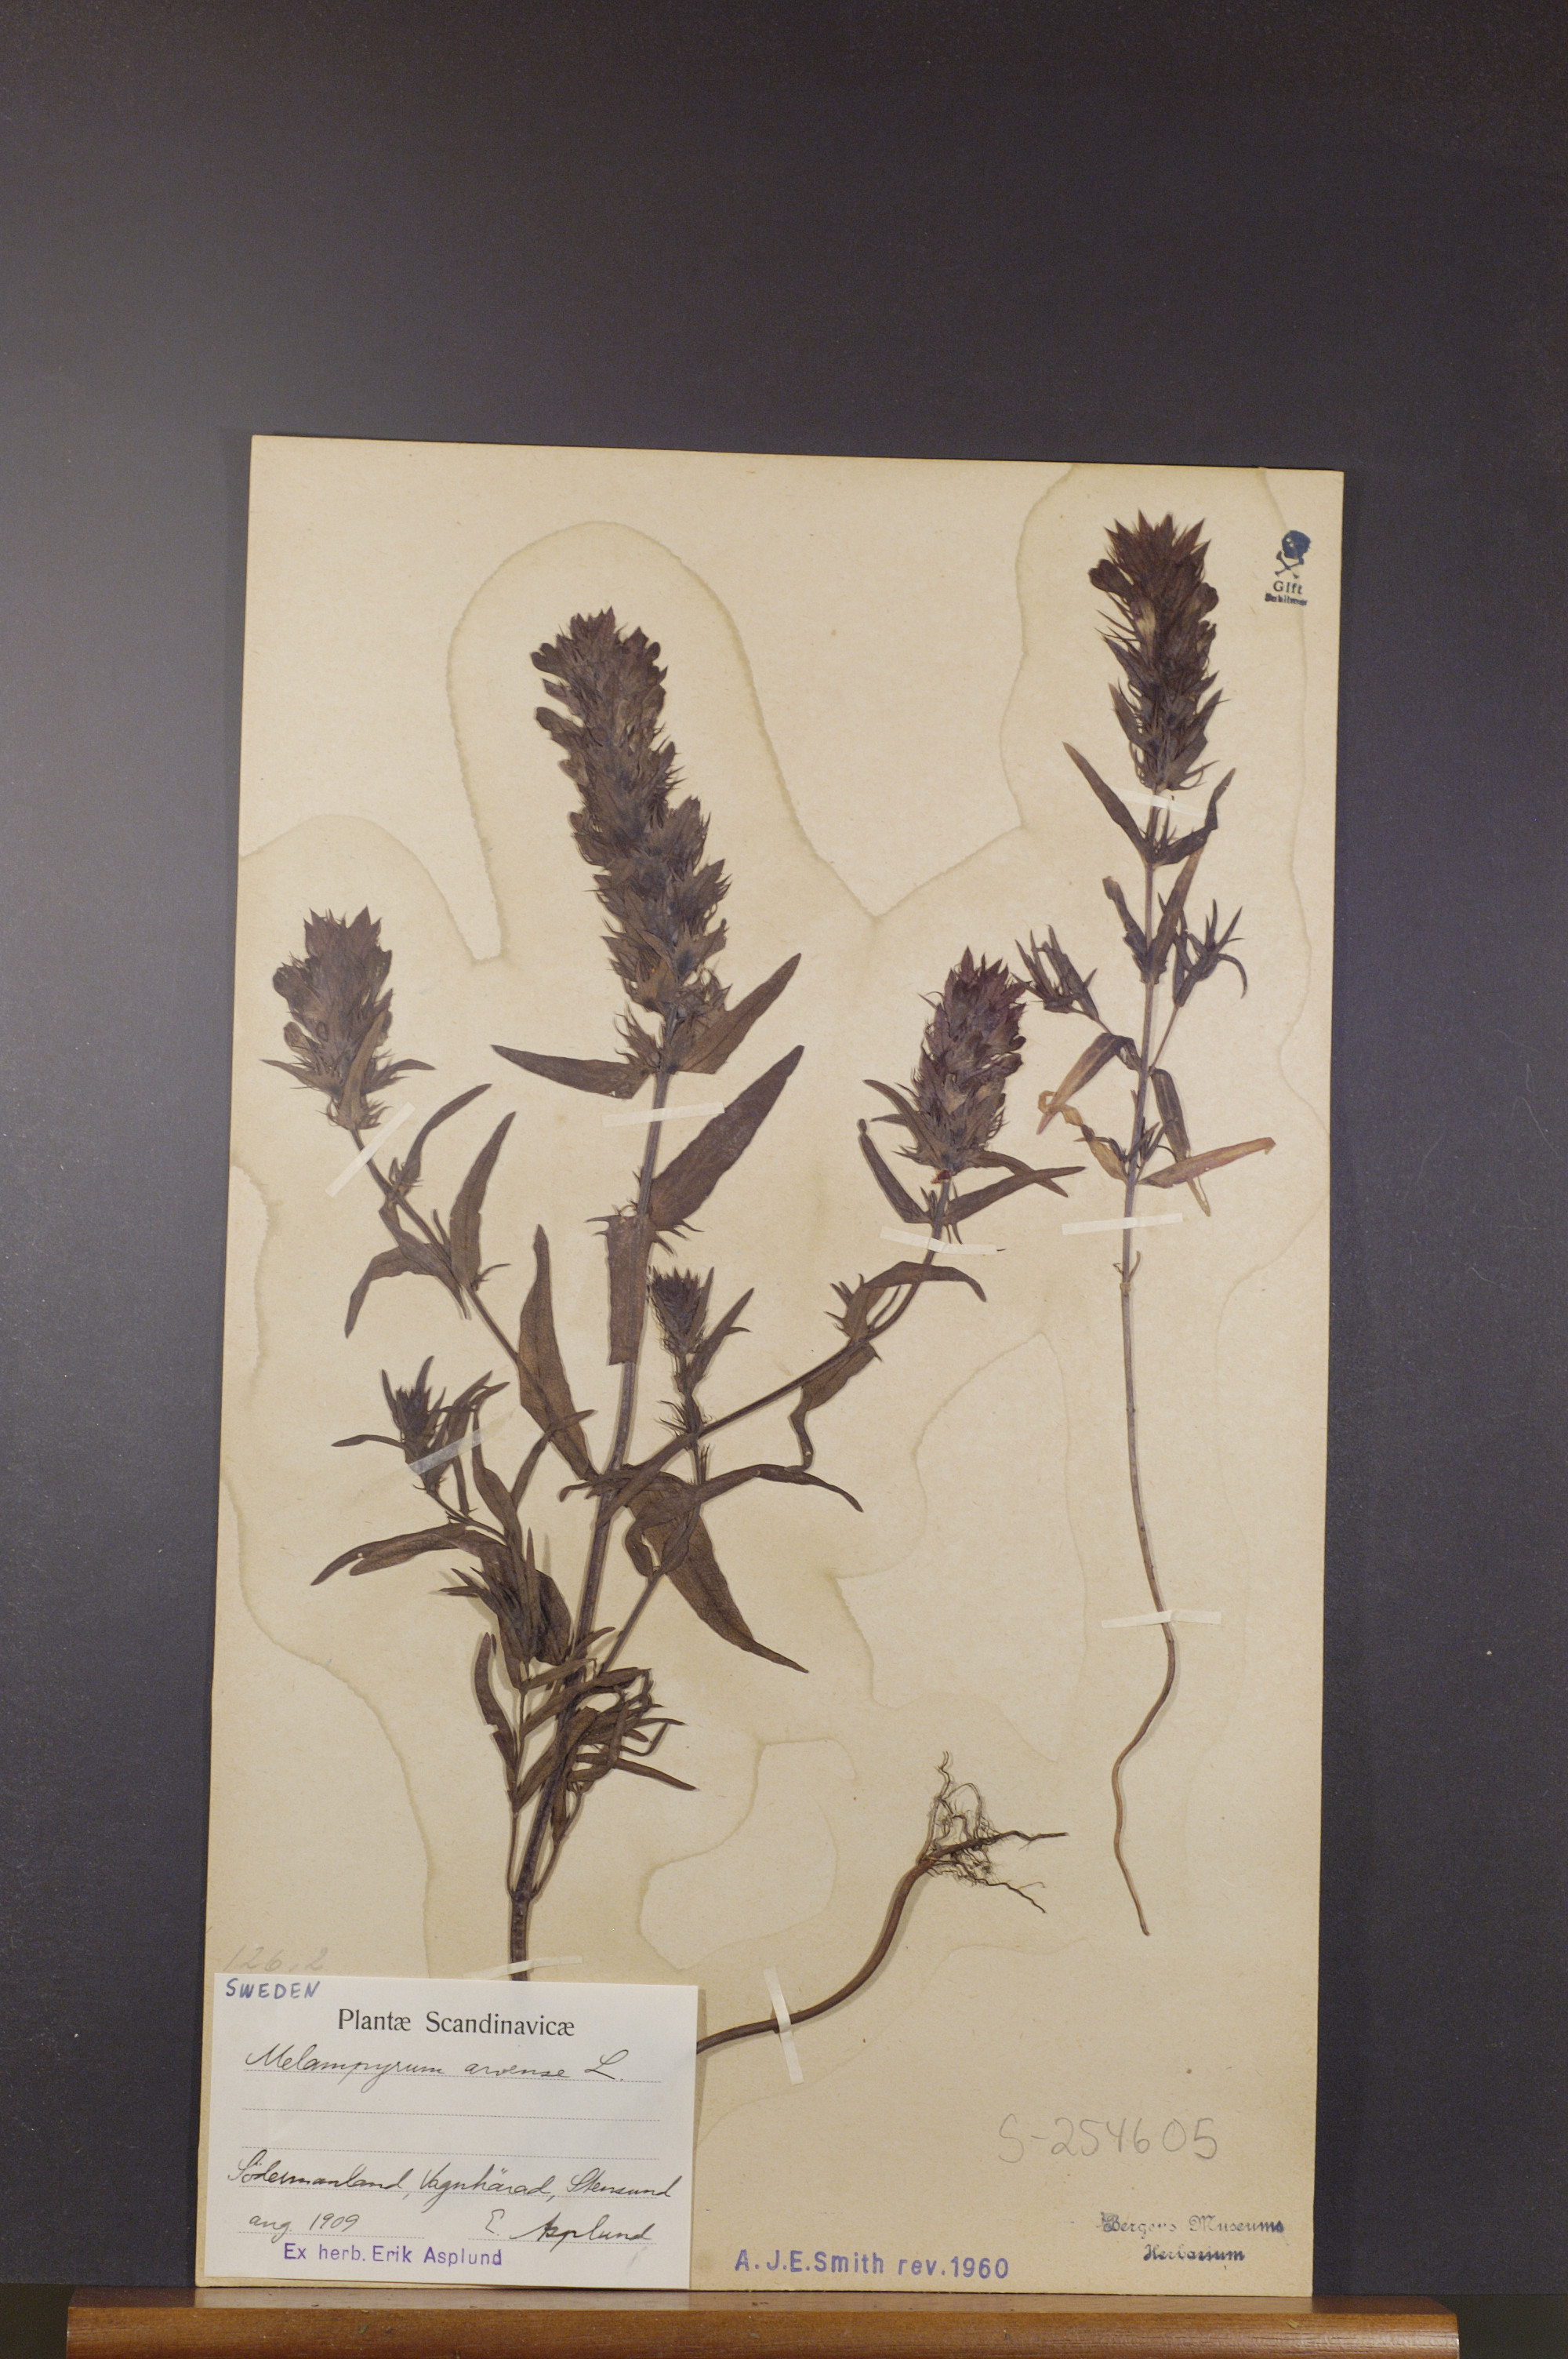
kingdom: Plantae
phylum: Tracheophyta
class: Magnoliopsida
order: Lamiales
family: Orobanchaceae
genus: Melampyrum
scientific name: Melampyrum arvense
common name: Field cow-wheat
